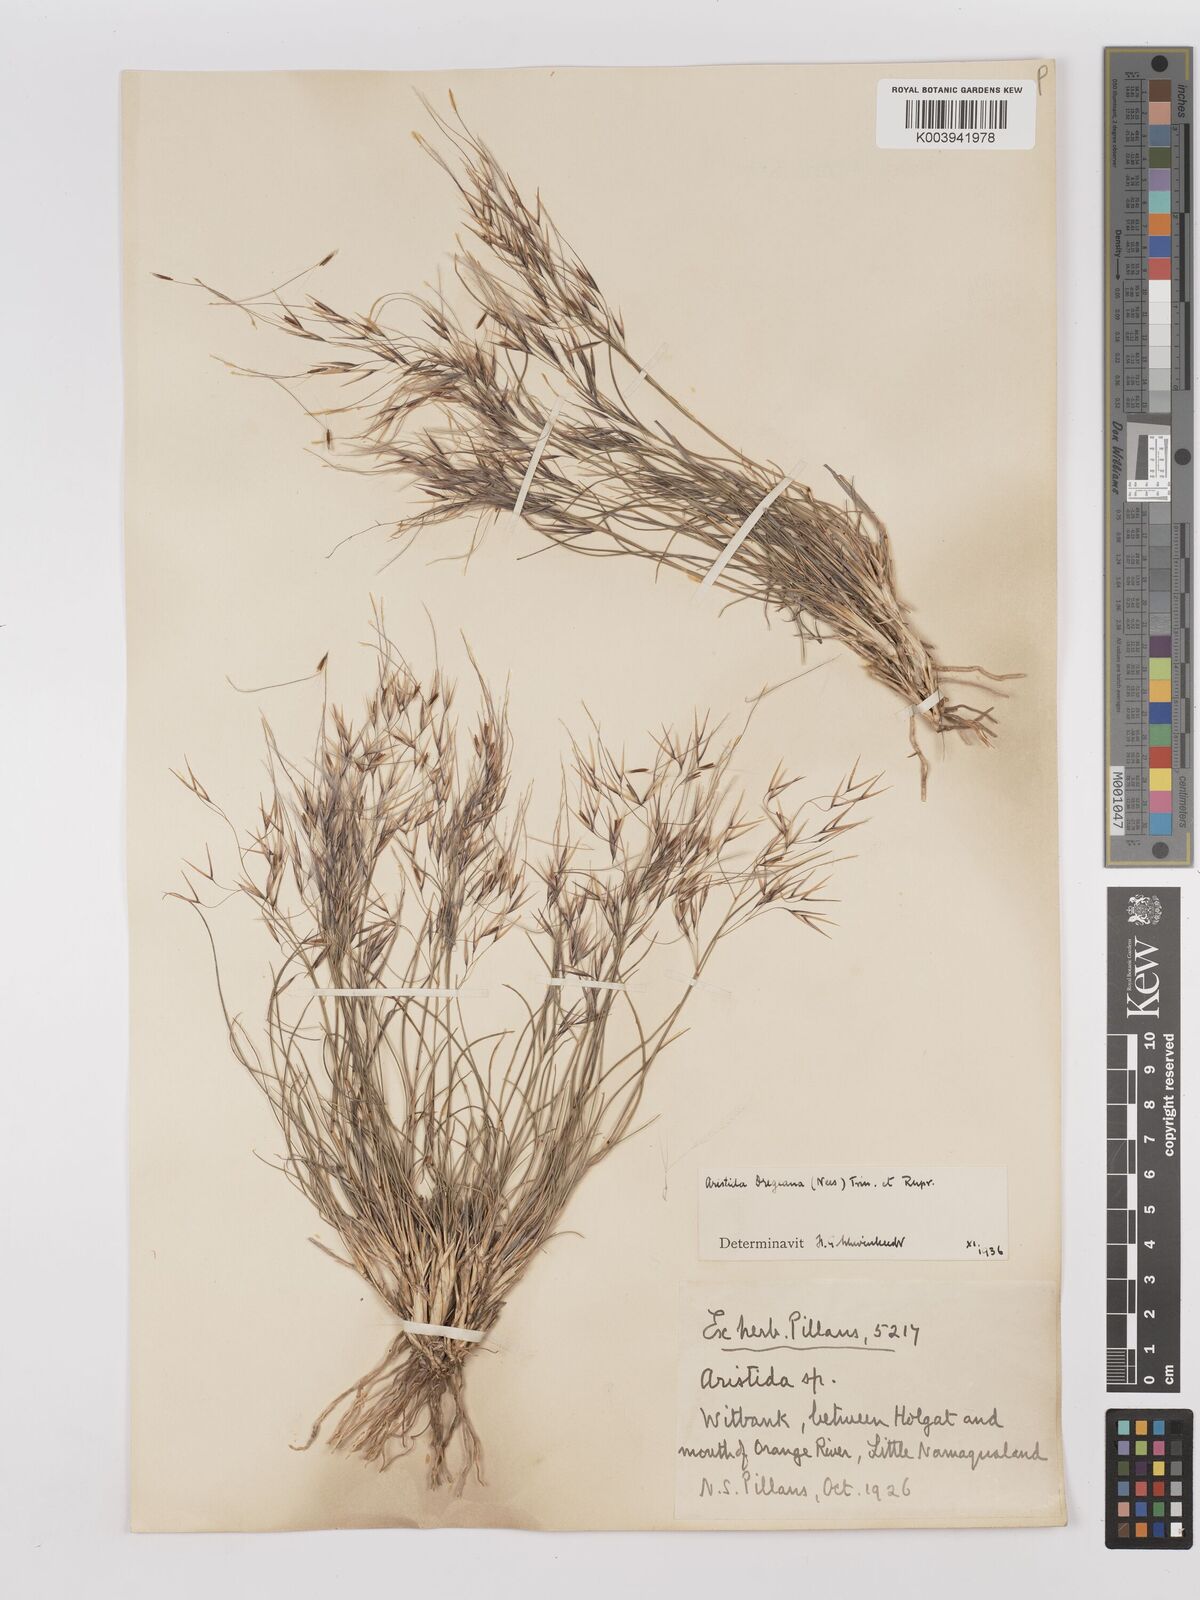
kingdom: Plantae
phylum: Tracheophyta
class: Liliopsida
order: Poales
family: Poaceae
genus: Stipagrostis
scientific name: Stipagrostis dregeana
